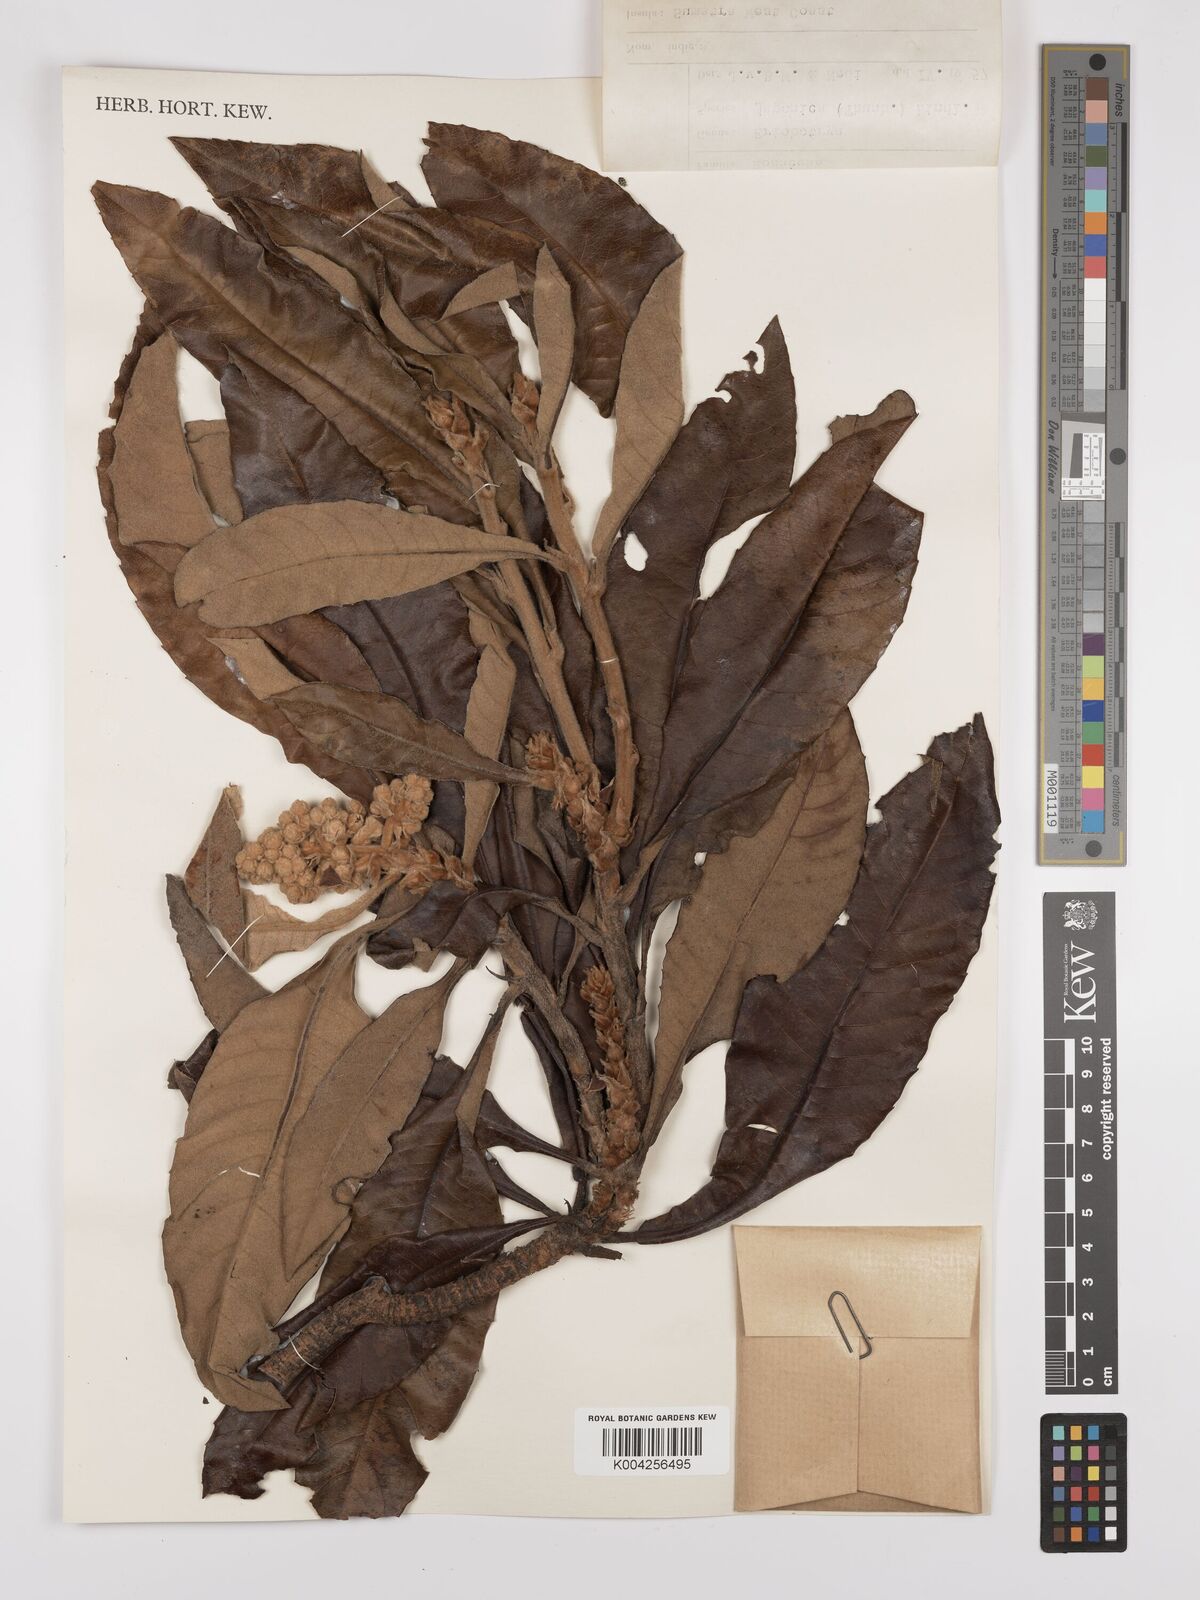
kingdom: Plantae
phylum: Tracheophyta
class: Magnoliopsida
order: Rosales
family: Rosaceae
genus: Rhaphiolepis
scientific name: Rhaphiolepis bibas
